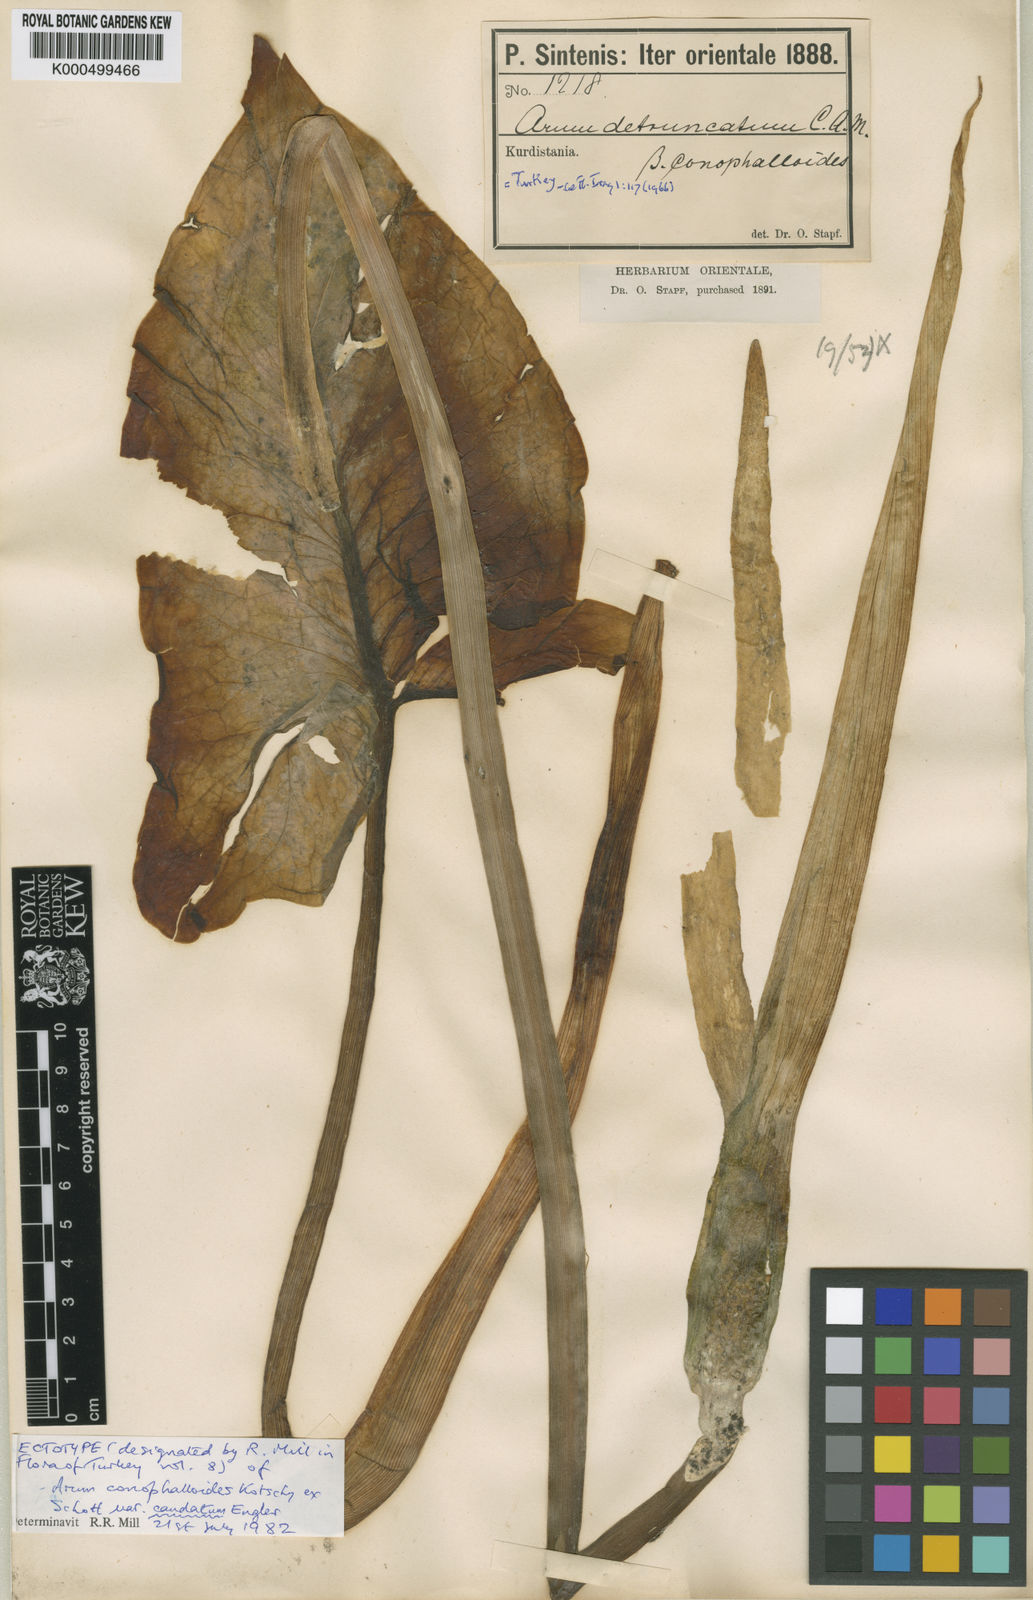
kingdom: Plantae
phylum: Tracheophyta
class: Liliopsida
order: Alismatales
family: Araceae
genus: Arum
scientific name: Arum rupicola
